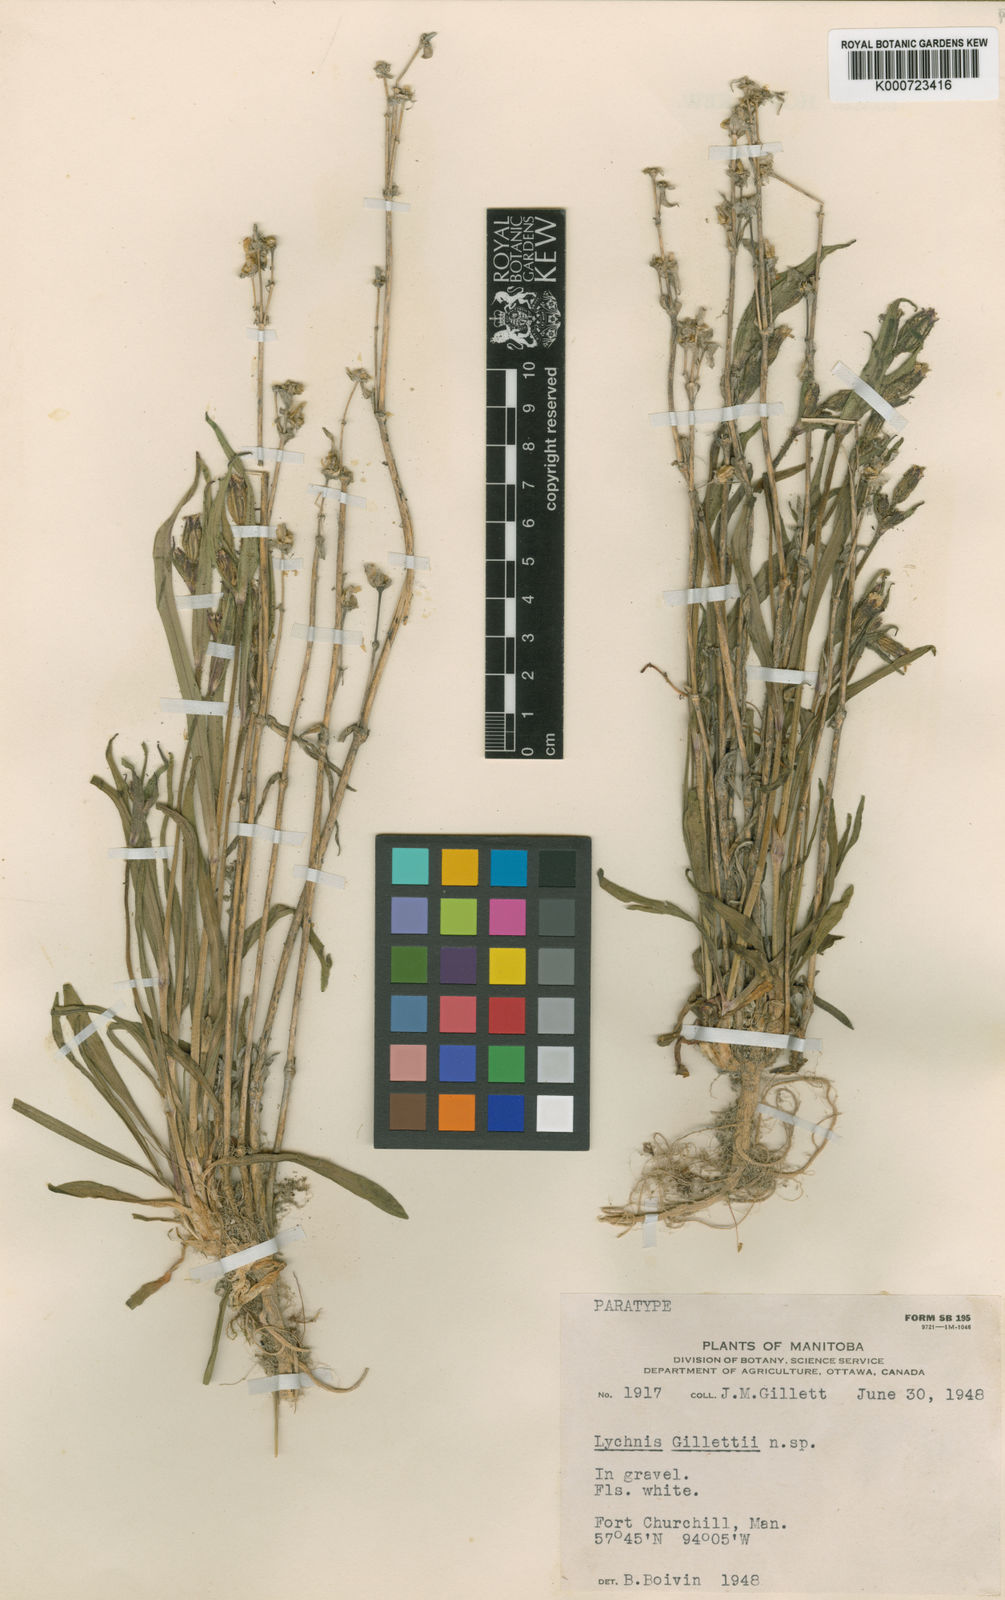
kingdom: Plantae
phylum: Tracheophyta
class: Magnoliopsida
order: Caryophyllales
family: Caryophyllaceae
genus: Silene
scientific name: Silene involucrata
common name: Greater arctic campion
